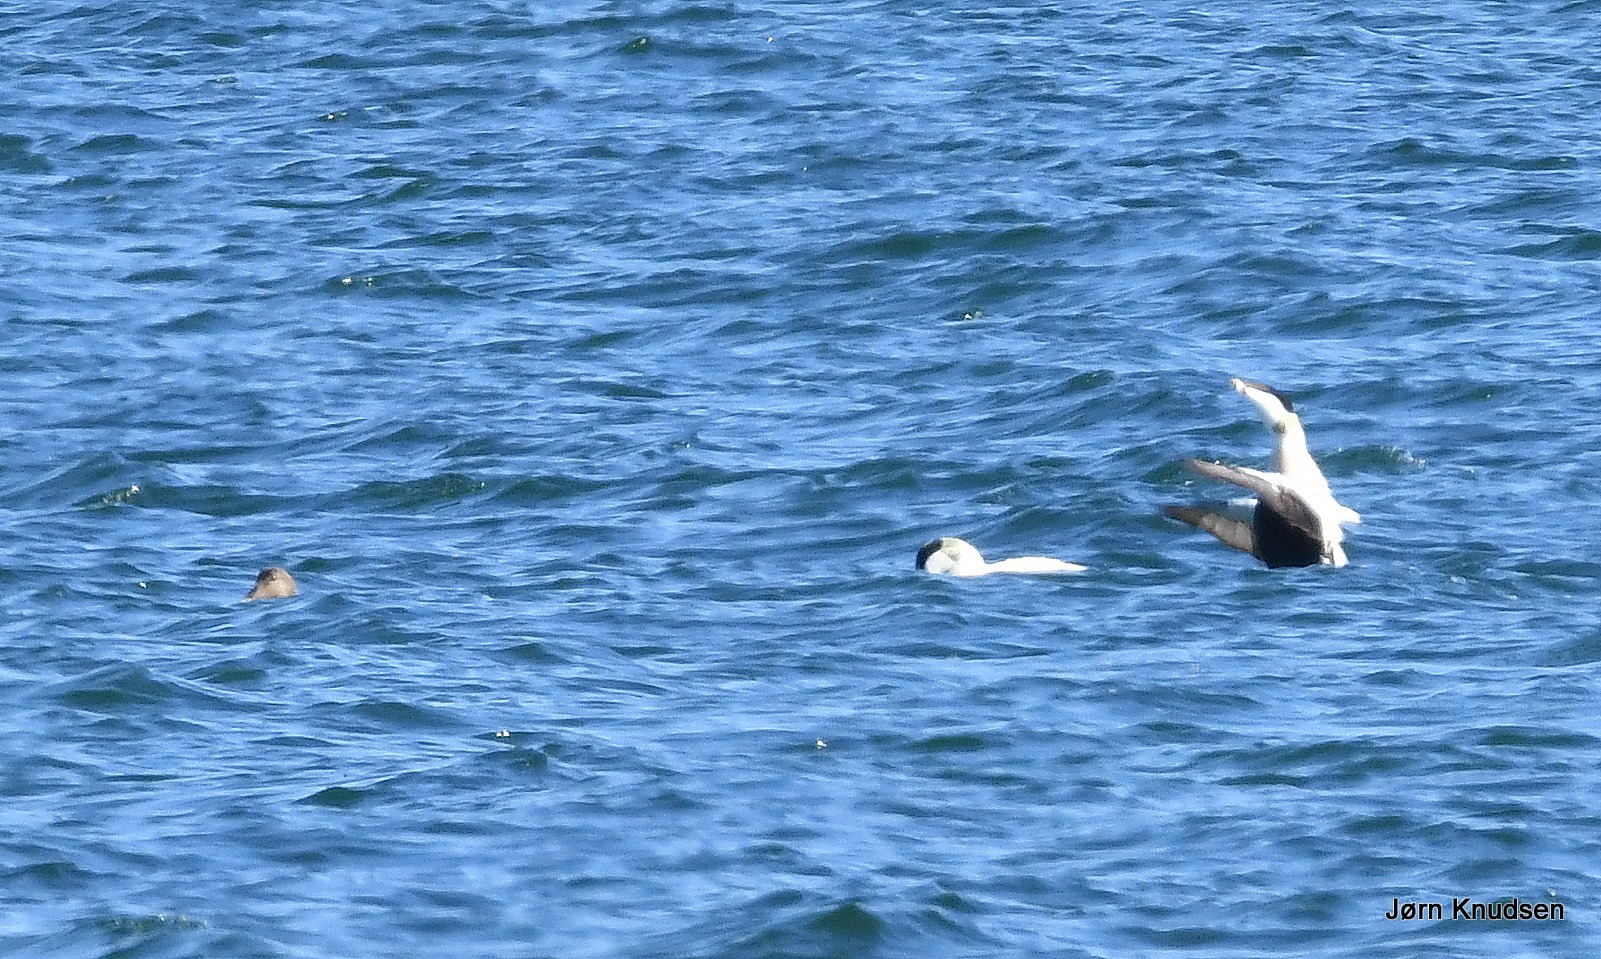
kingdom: Animalia
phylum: Chordata
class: Aves
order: Anseriformes
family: Anatidae
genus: Somateria
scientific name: Somateria mollissima
